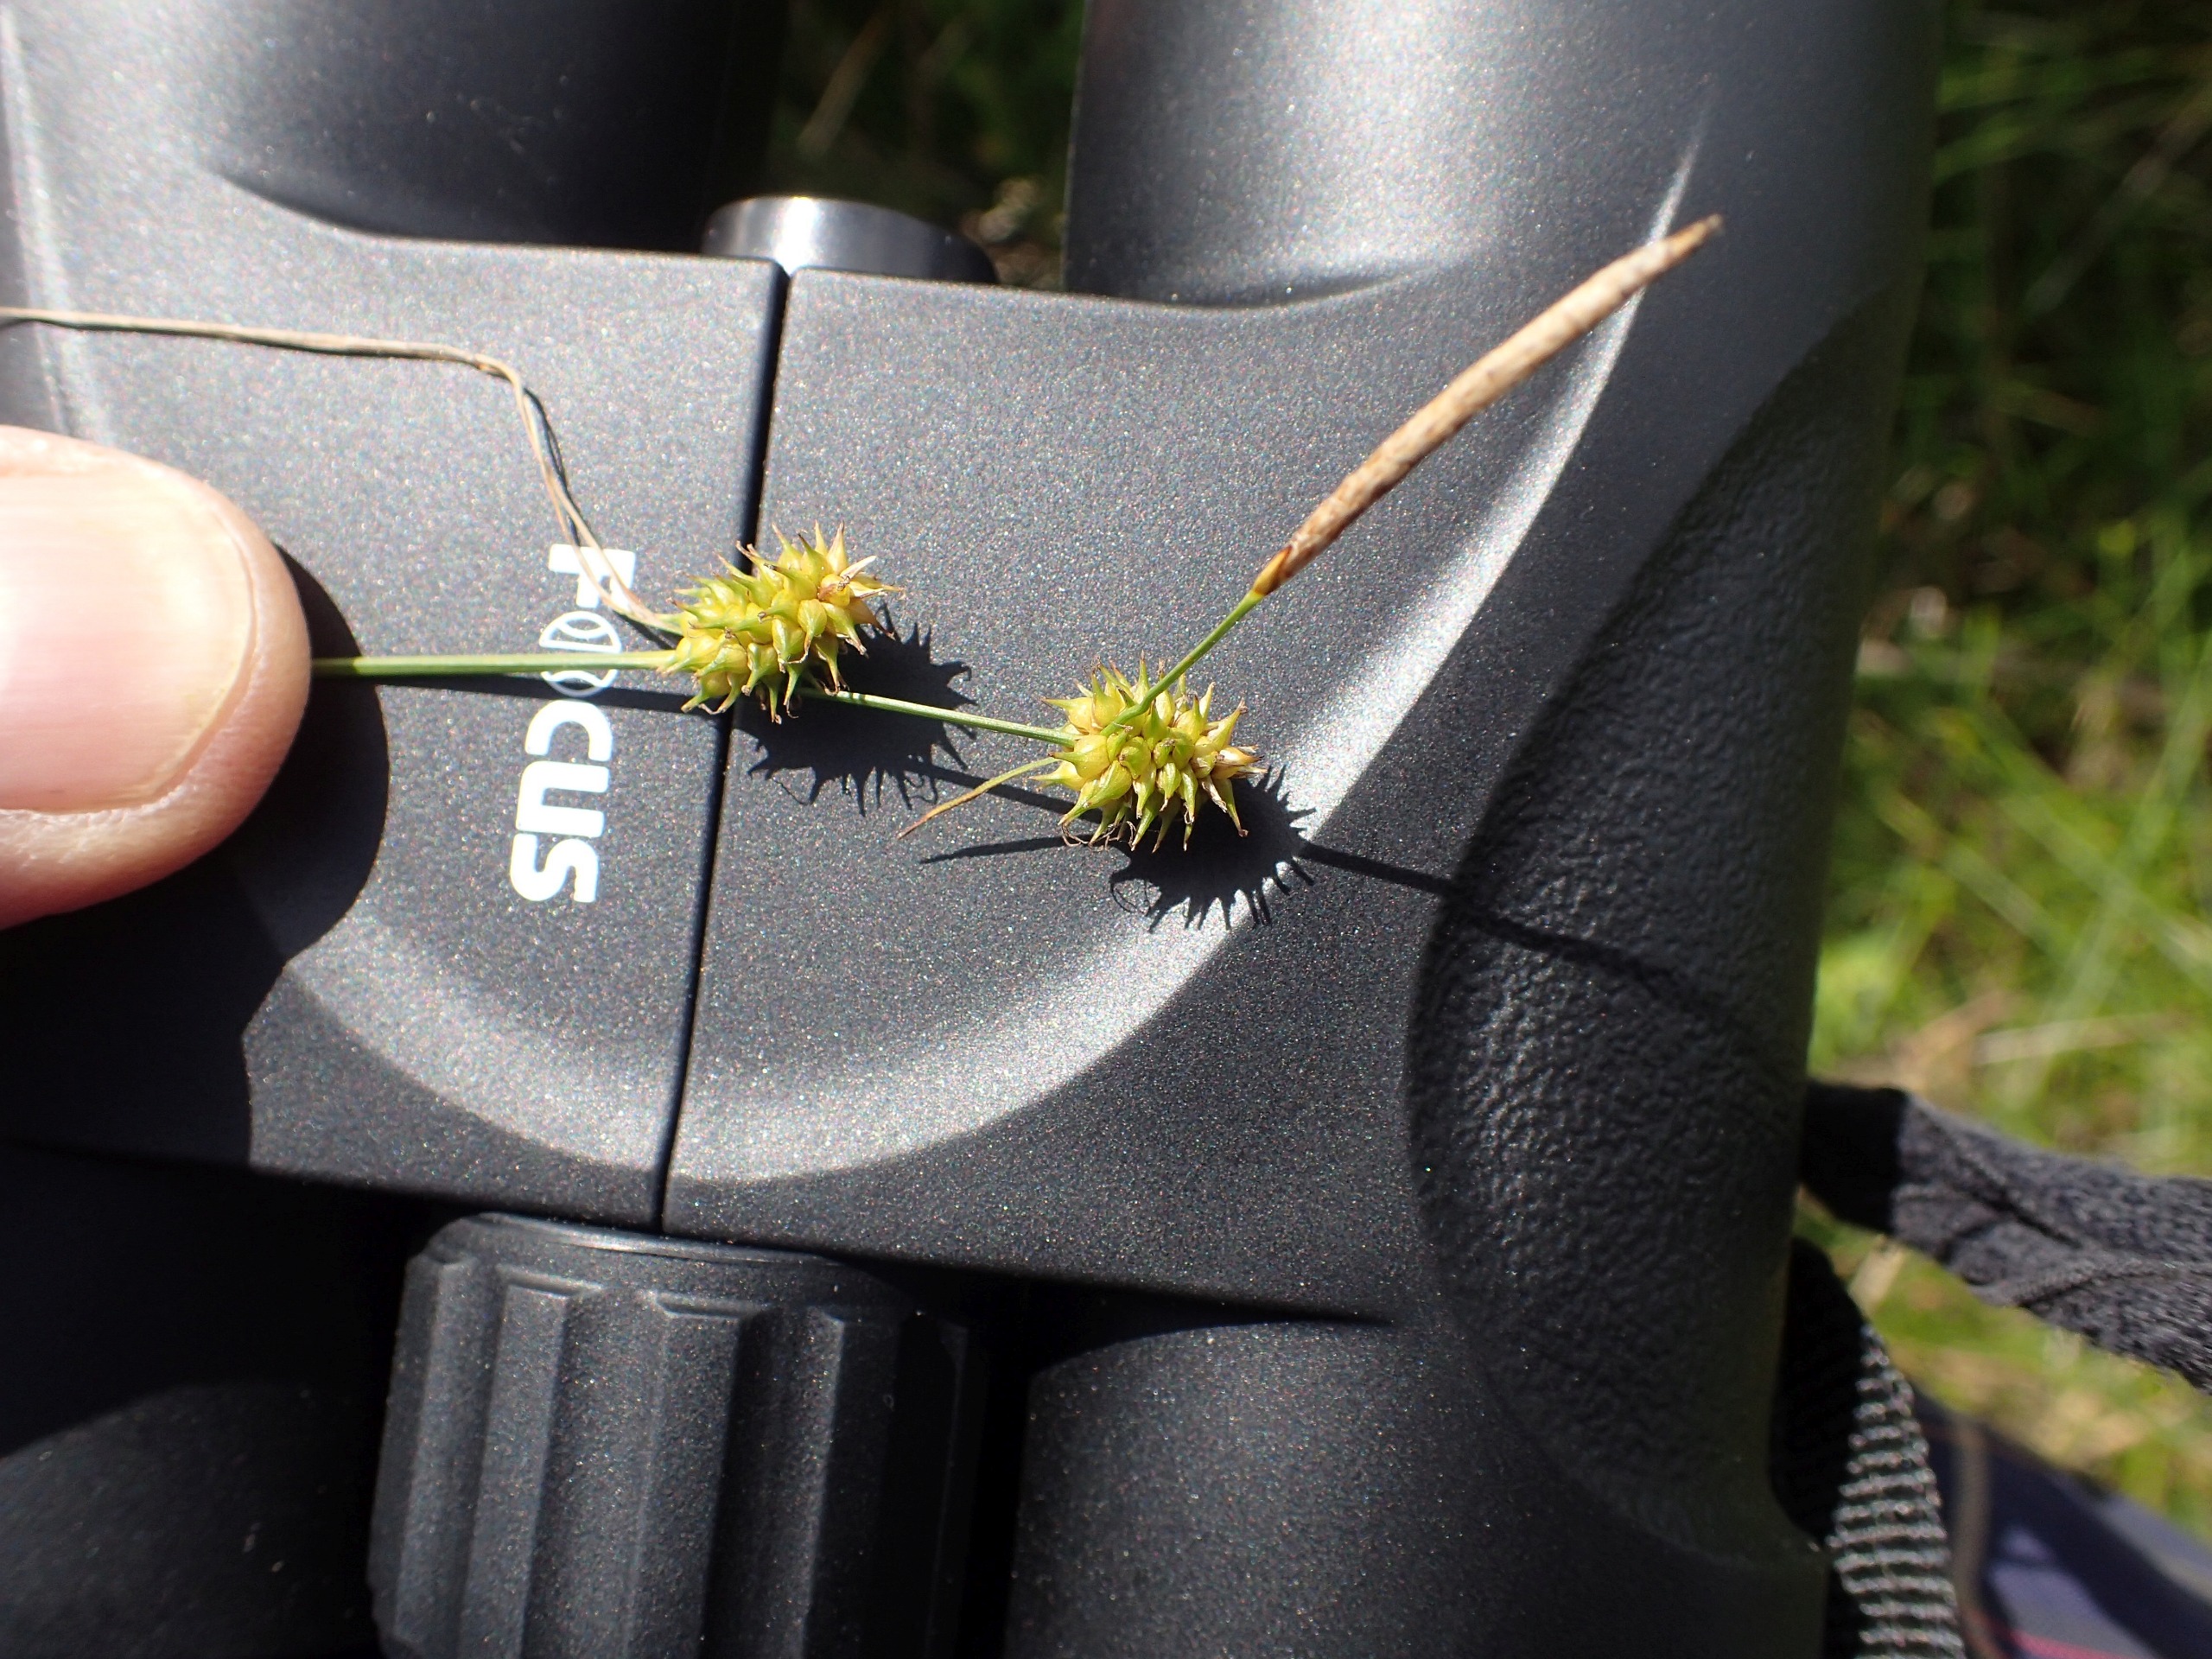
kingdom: Plantae
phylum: Tracheophyta
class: Liliopsida
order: Poales
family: Cyperaceae
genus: Carex
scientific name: Carex lepidocarpa
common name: Krognæb-star
